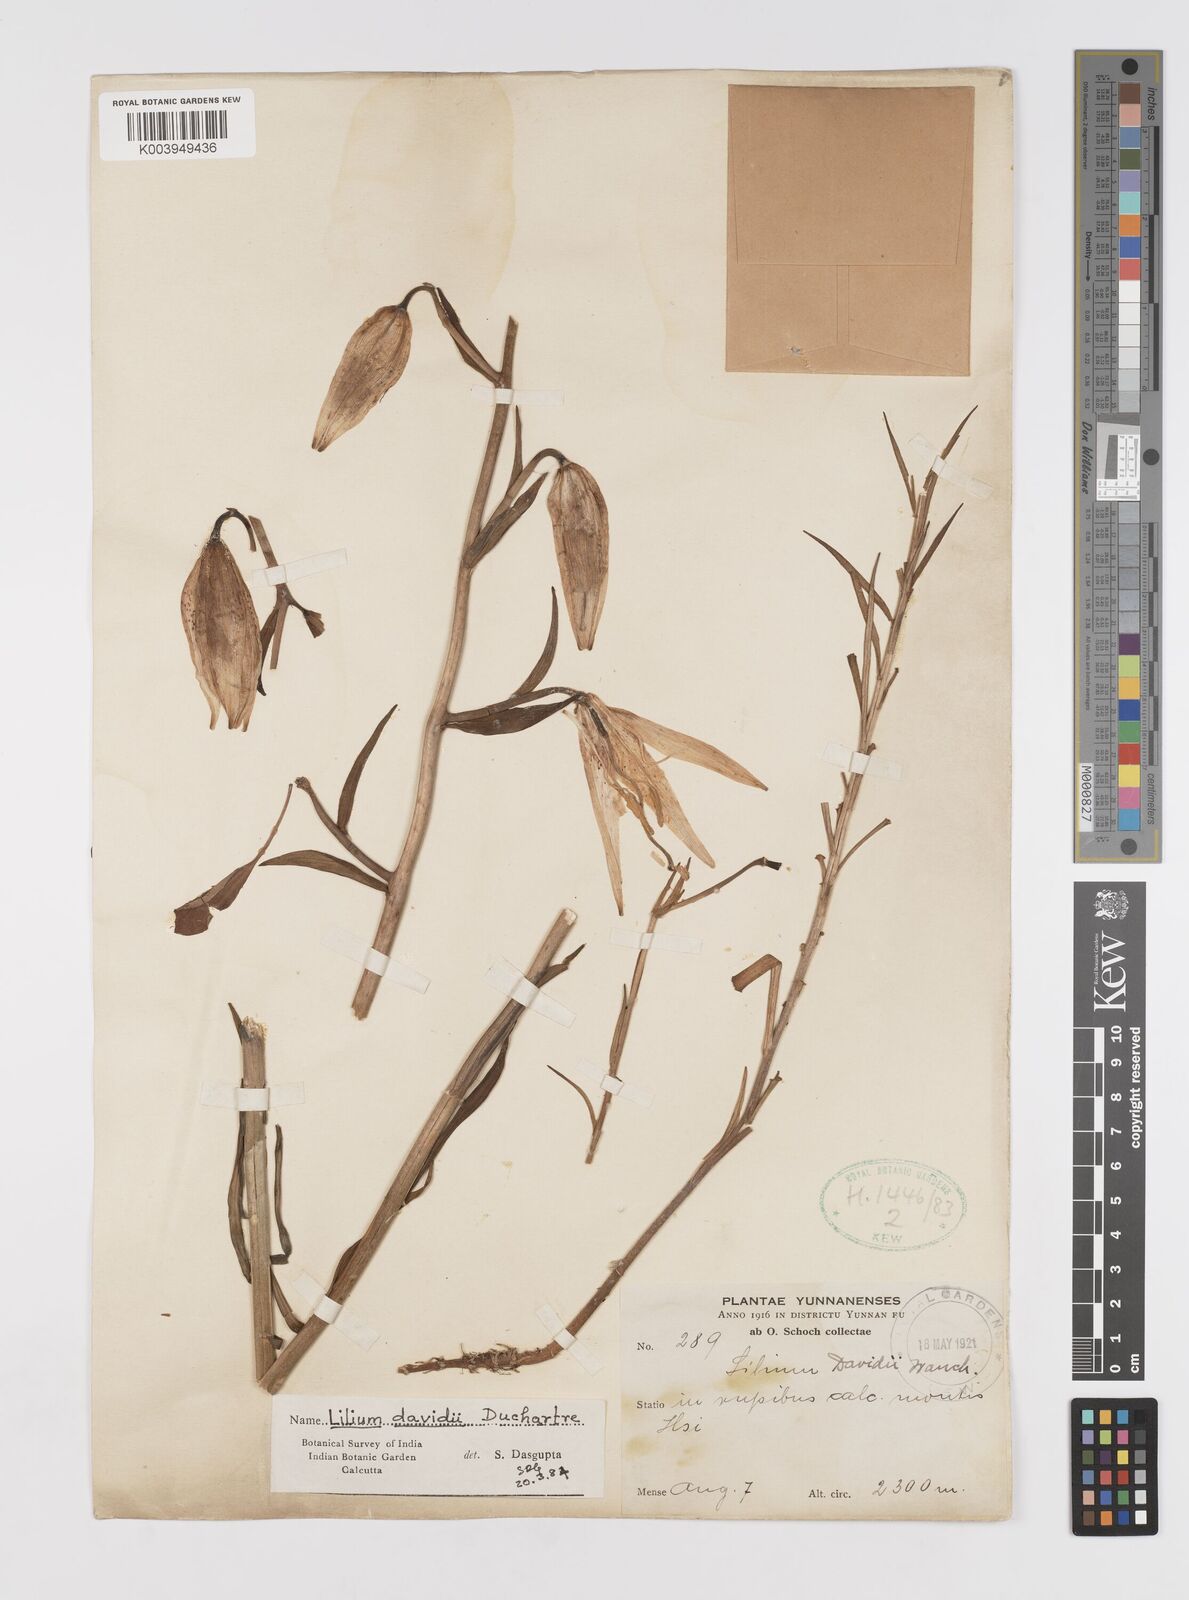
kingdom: Plantae
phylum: Tracheophyta
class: Liliopsida
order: Liliales
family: Liliaceae
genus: Lilium
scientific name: Lilium davidii
